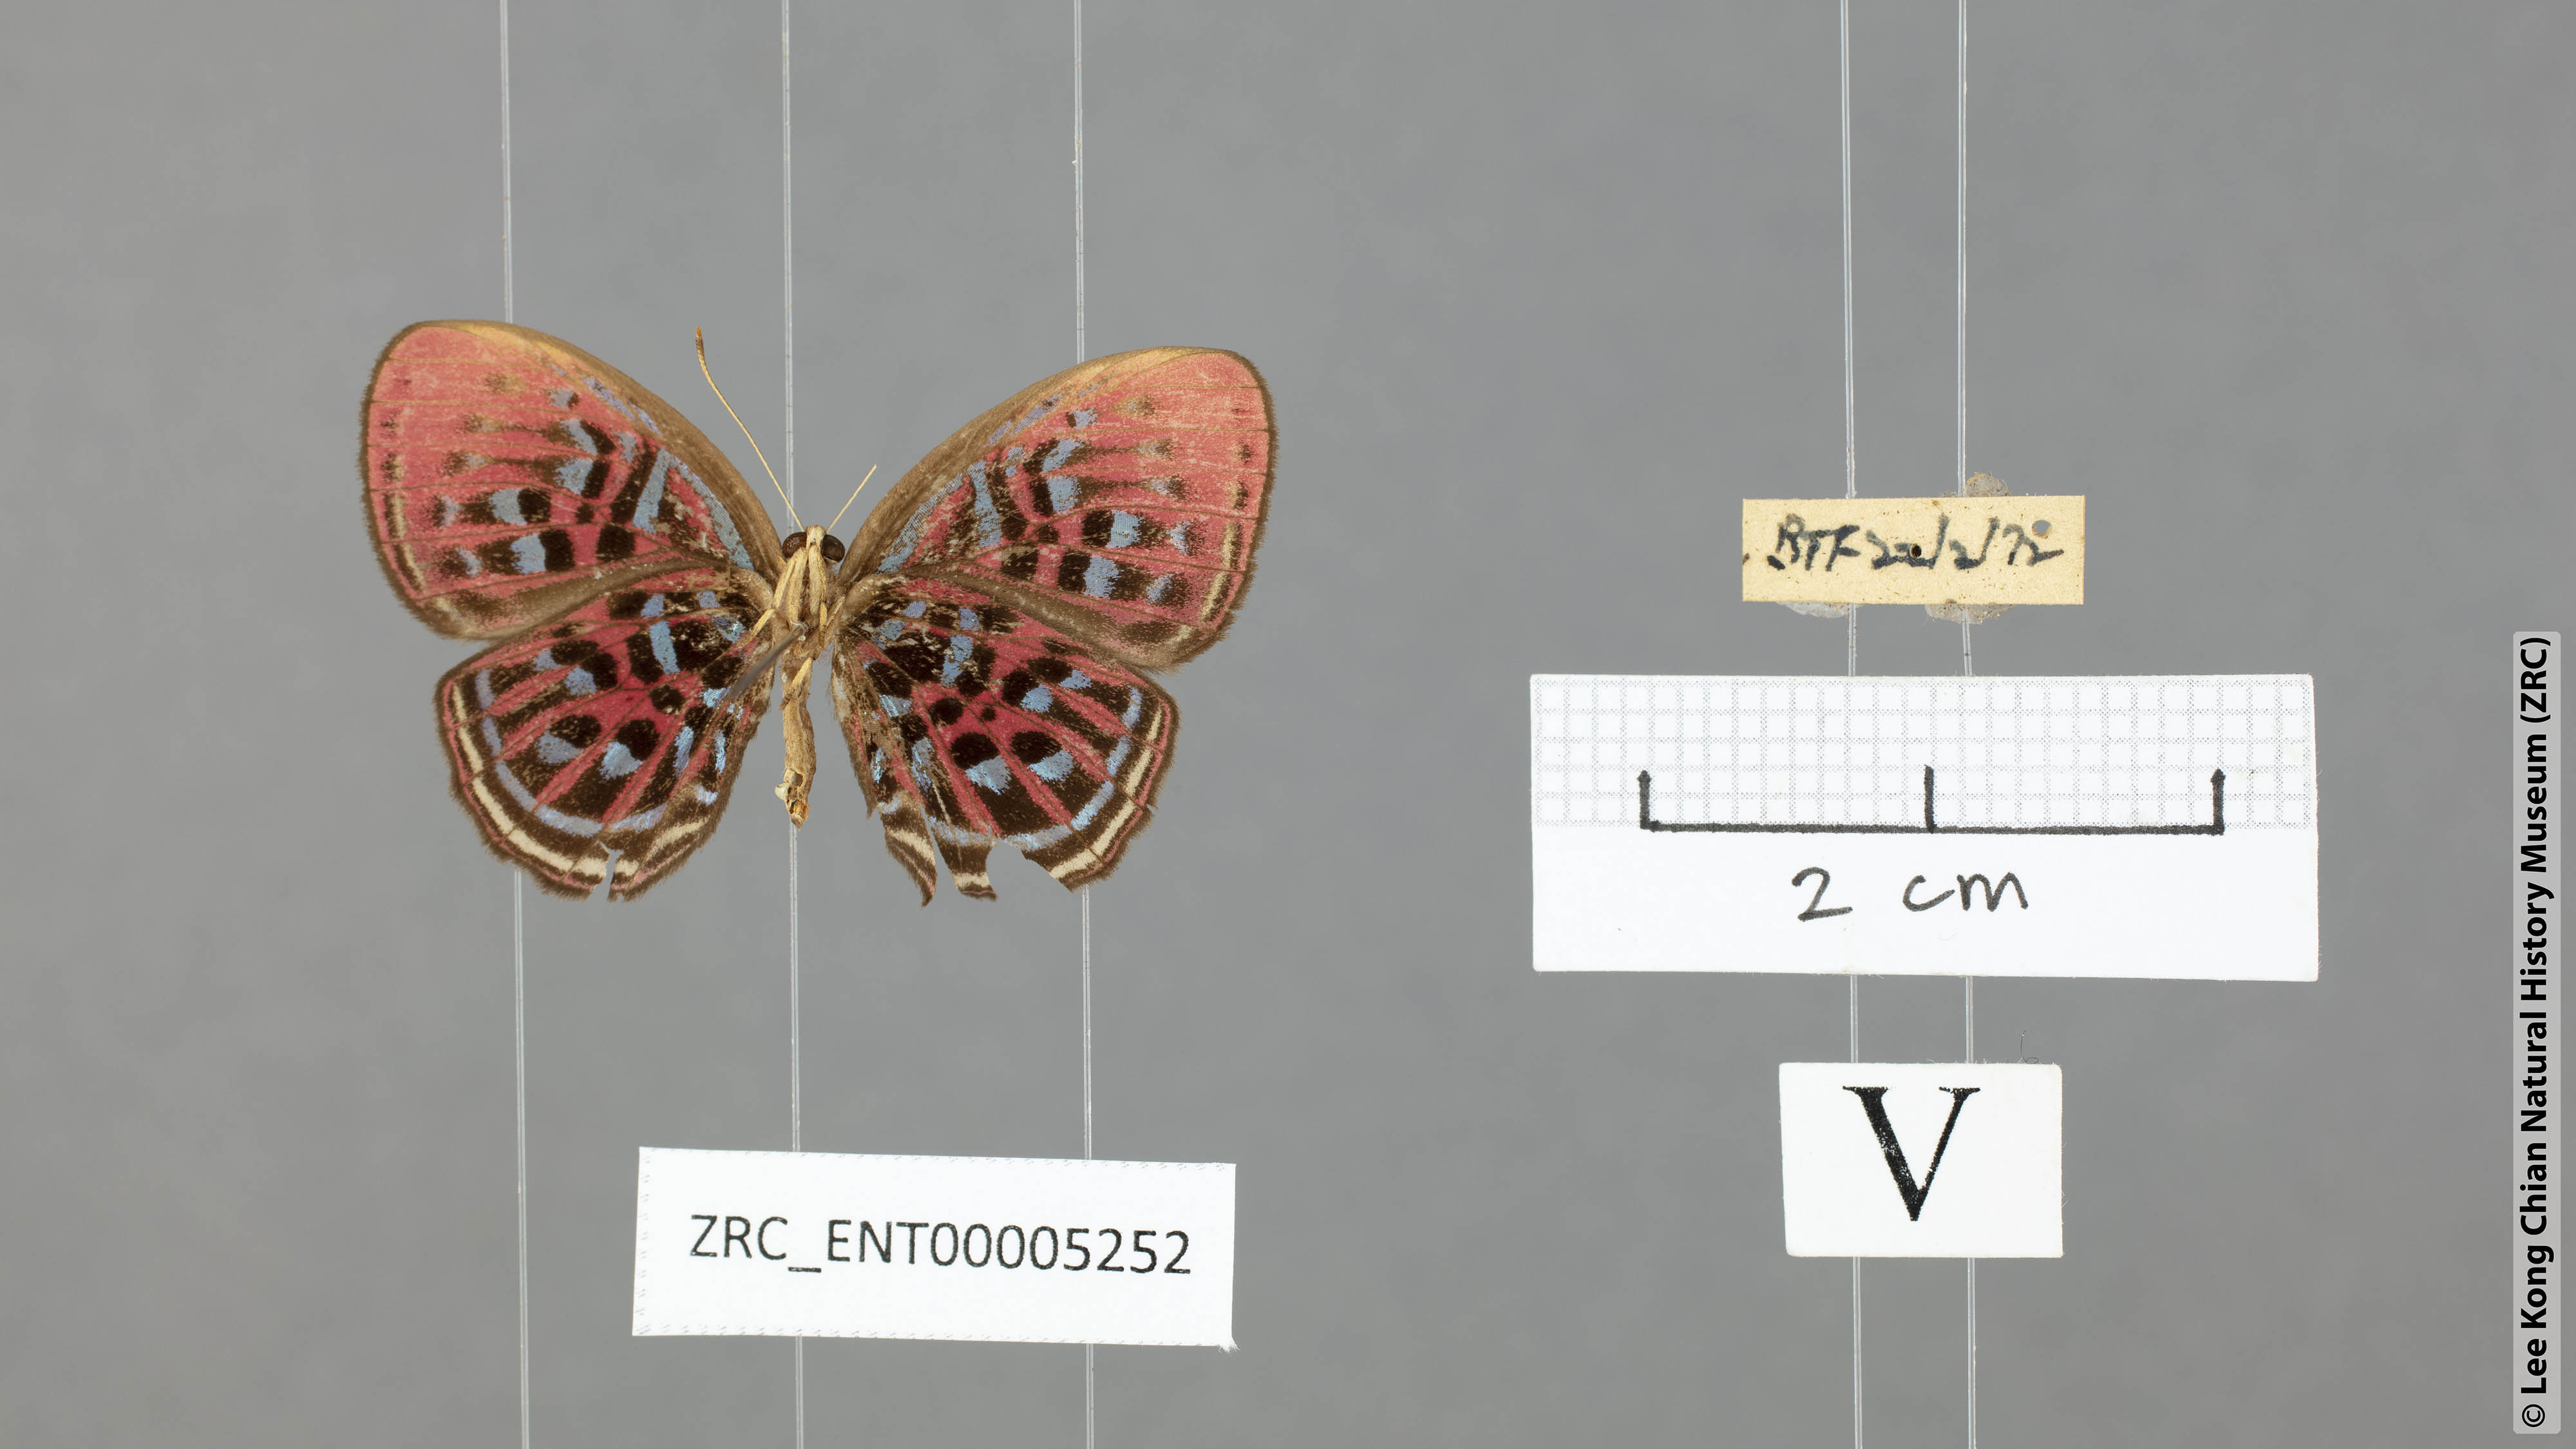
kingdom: Animalia
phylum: Arthropoda
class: Insecta
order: Lepidoptera
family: Riodinidae
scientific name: Riodinidae
